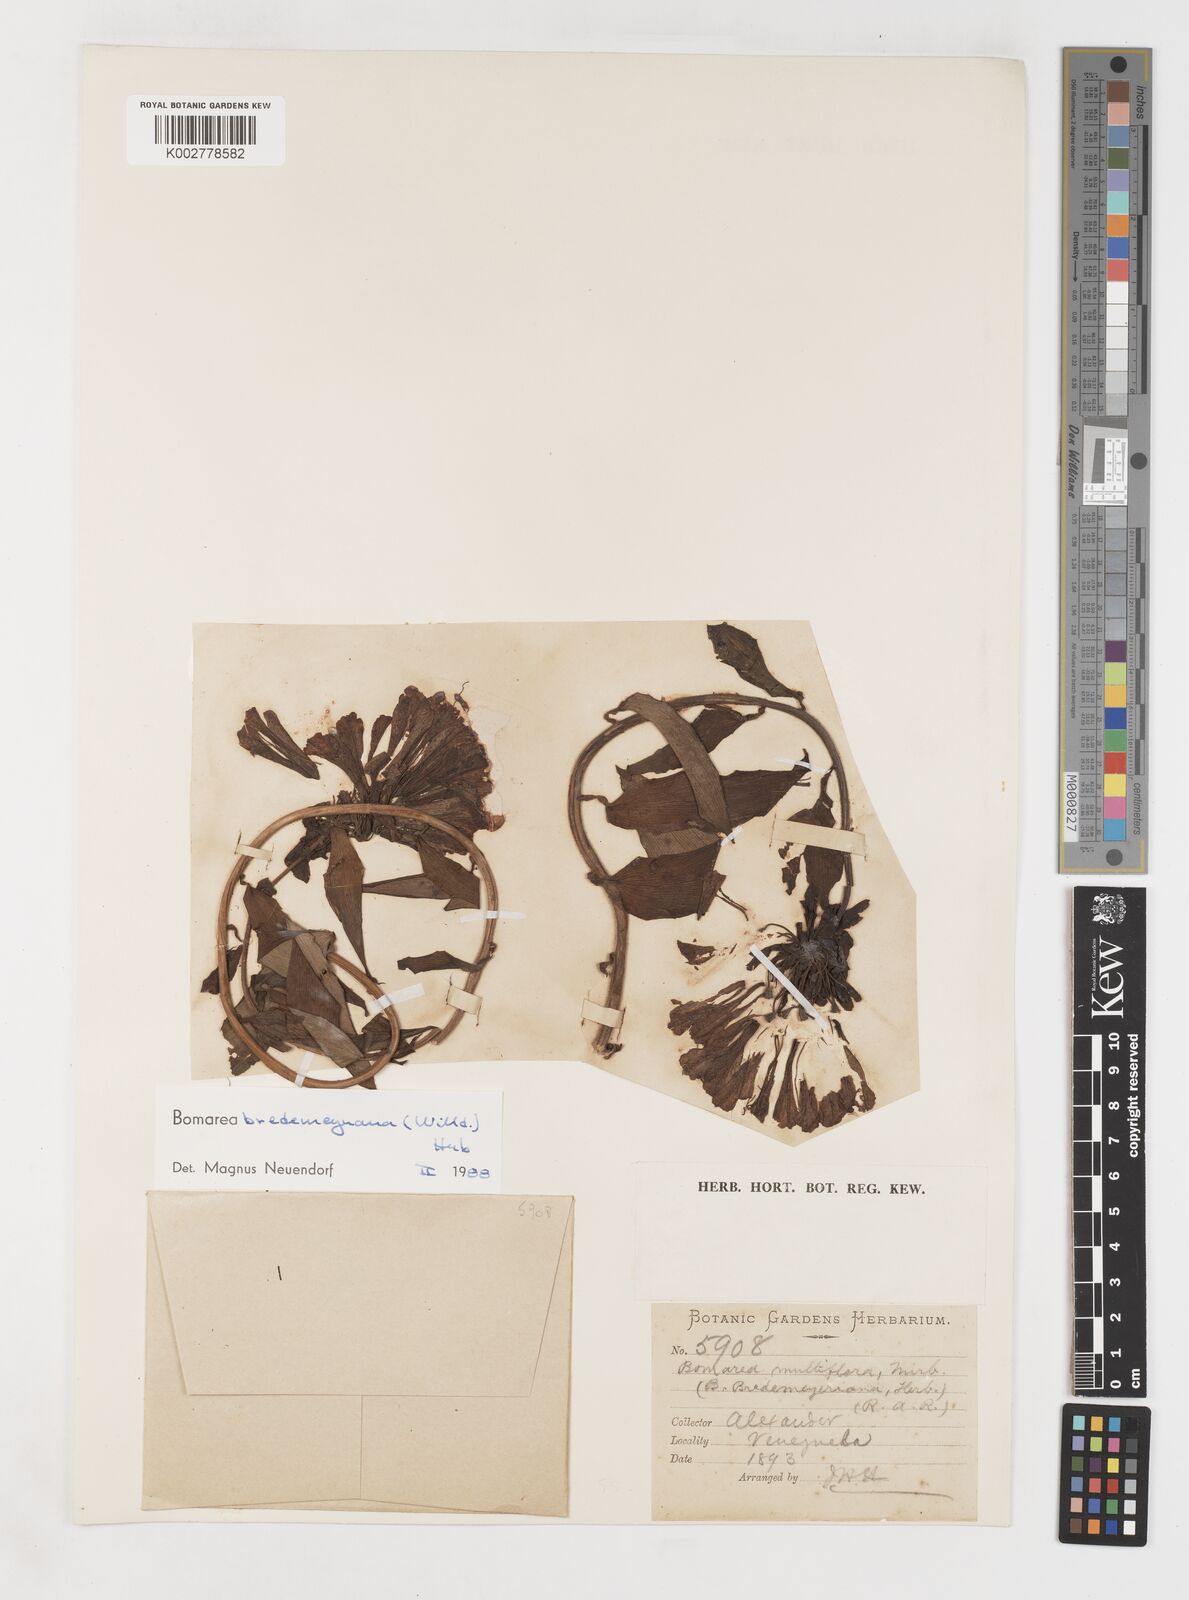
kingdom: Plantae
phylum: Tracheophyta
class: Liliopsida
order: Liliales
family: Alstroemeriaceae
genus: Bomarea
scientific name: Bomarea multiflora
